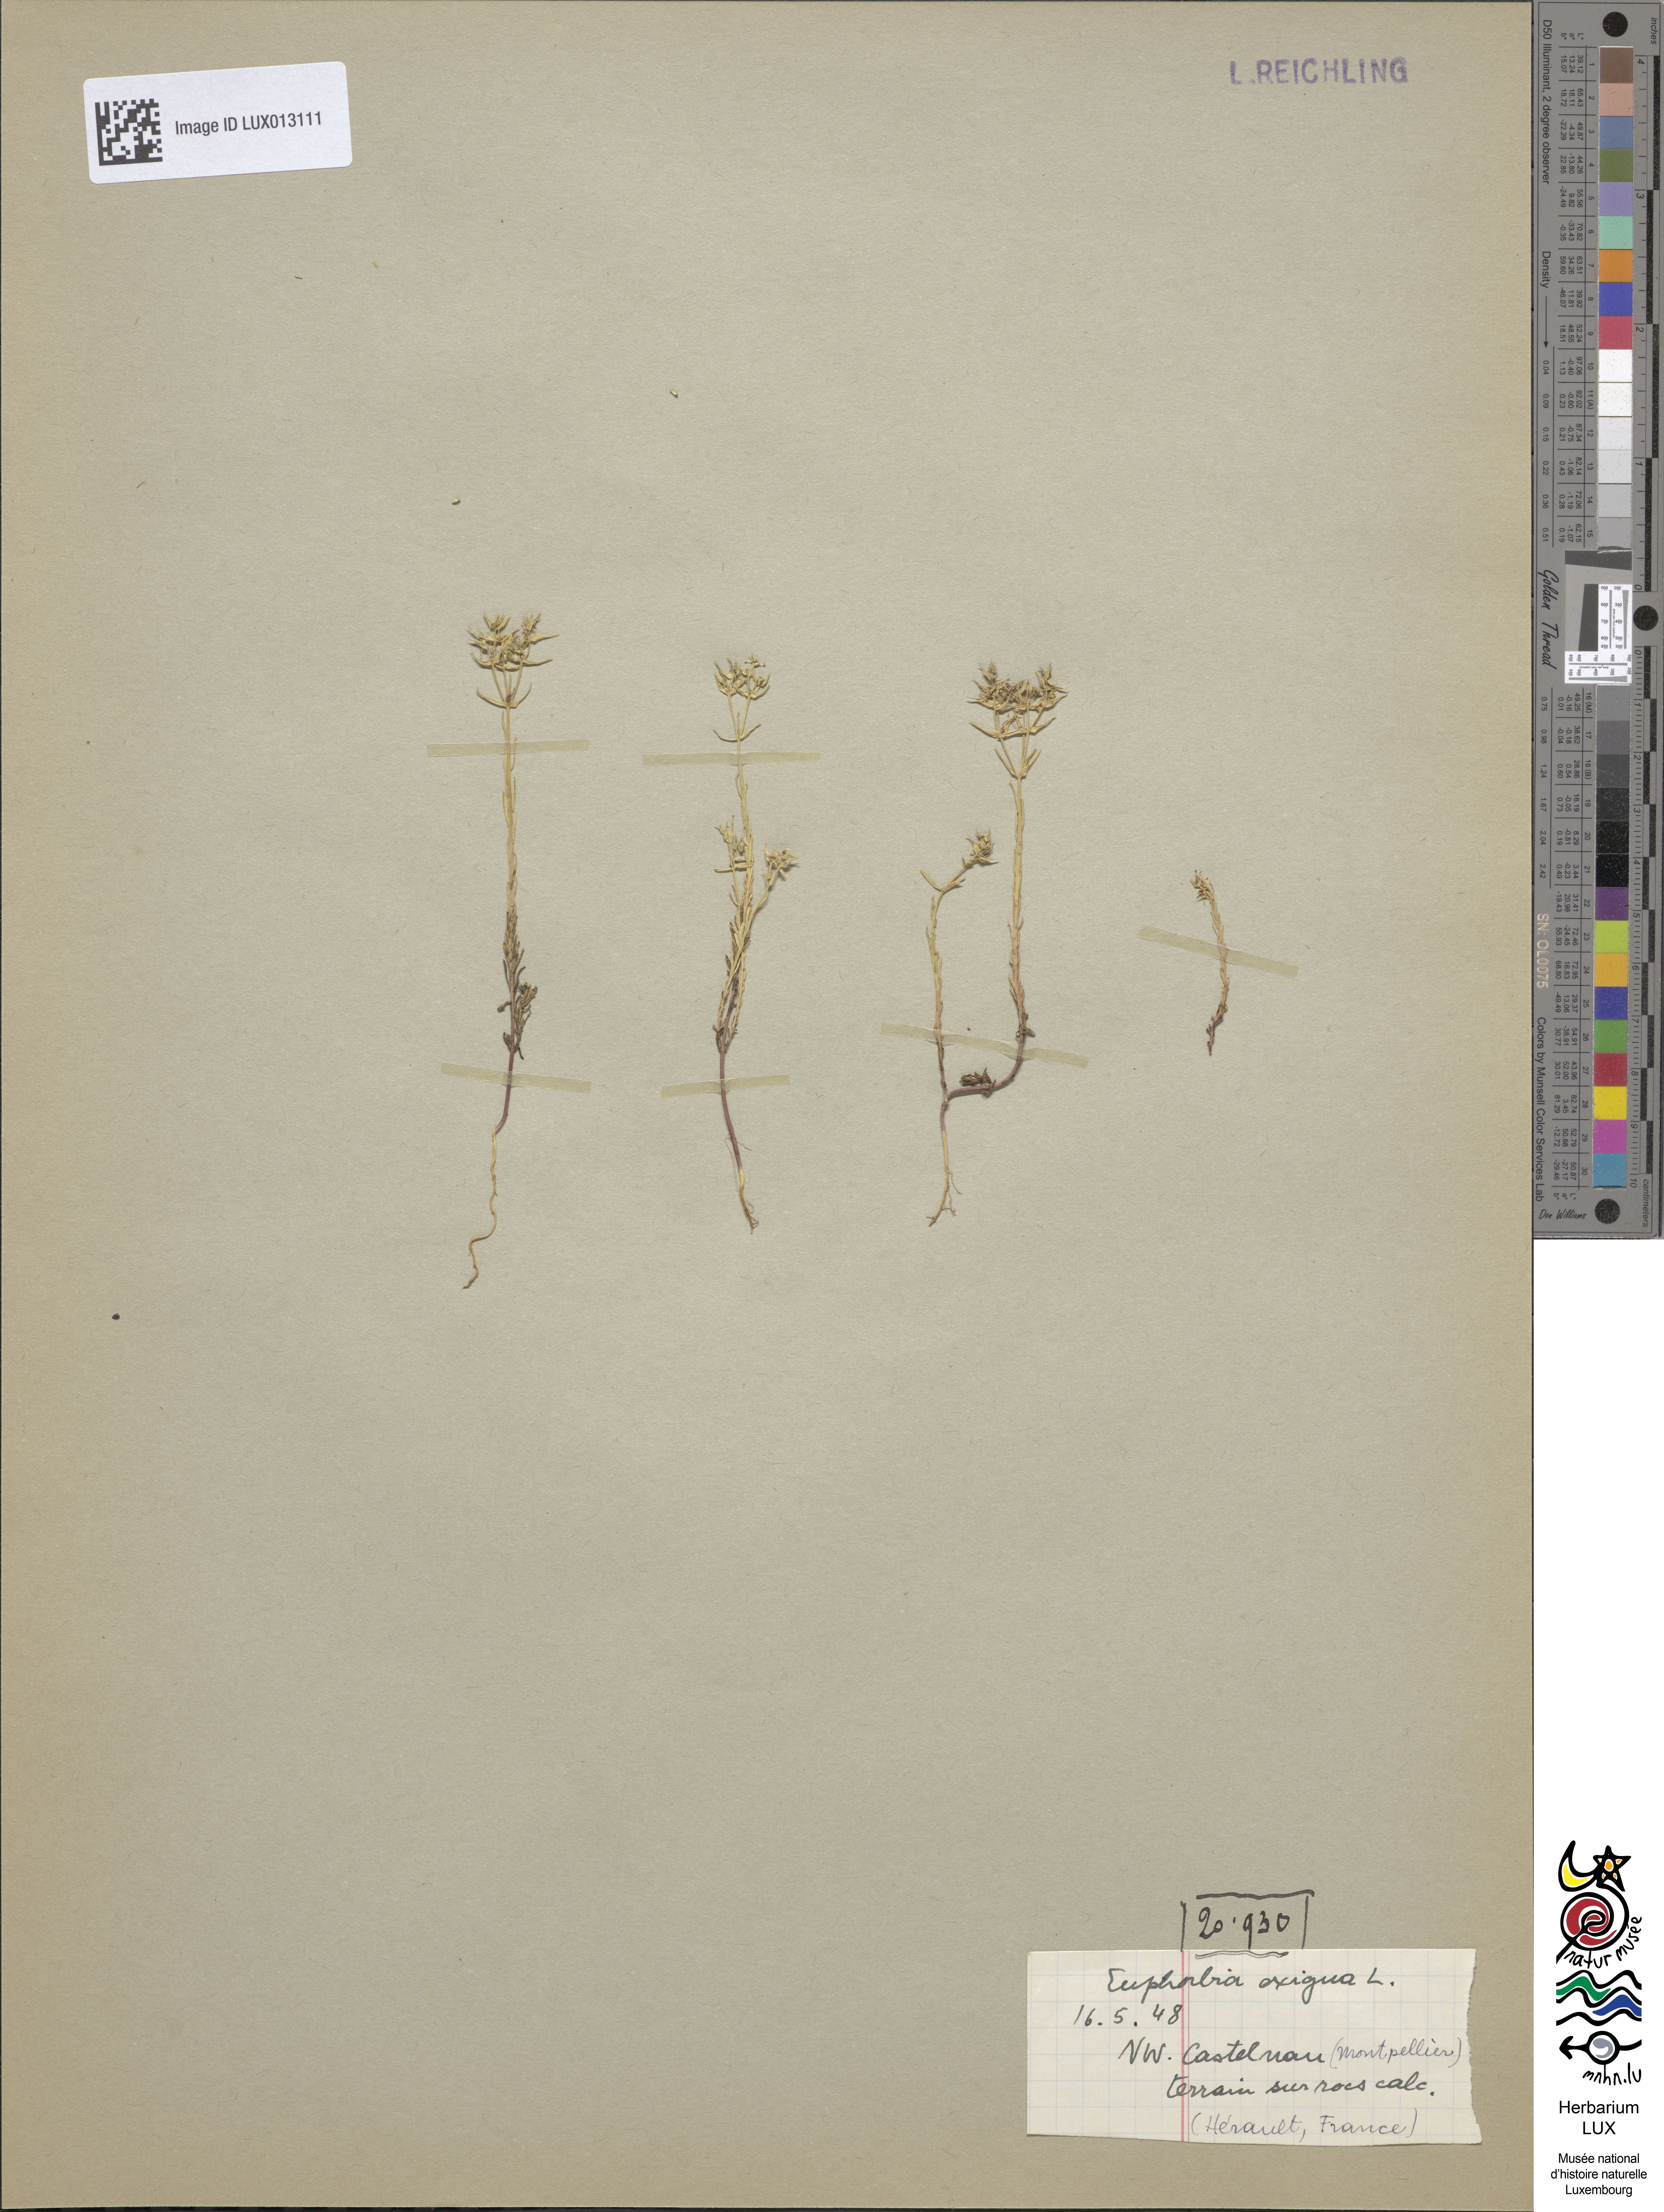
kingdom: Plantae
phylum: Tracheophyta
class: Magnoliopsida
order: Malpighiales
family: Euphorbiaceae
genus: Euphorbia
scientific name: Euphorbia exigua
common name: Dwarf spurge
